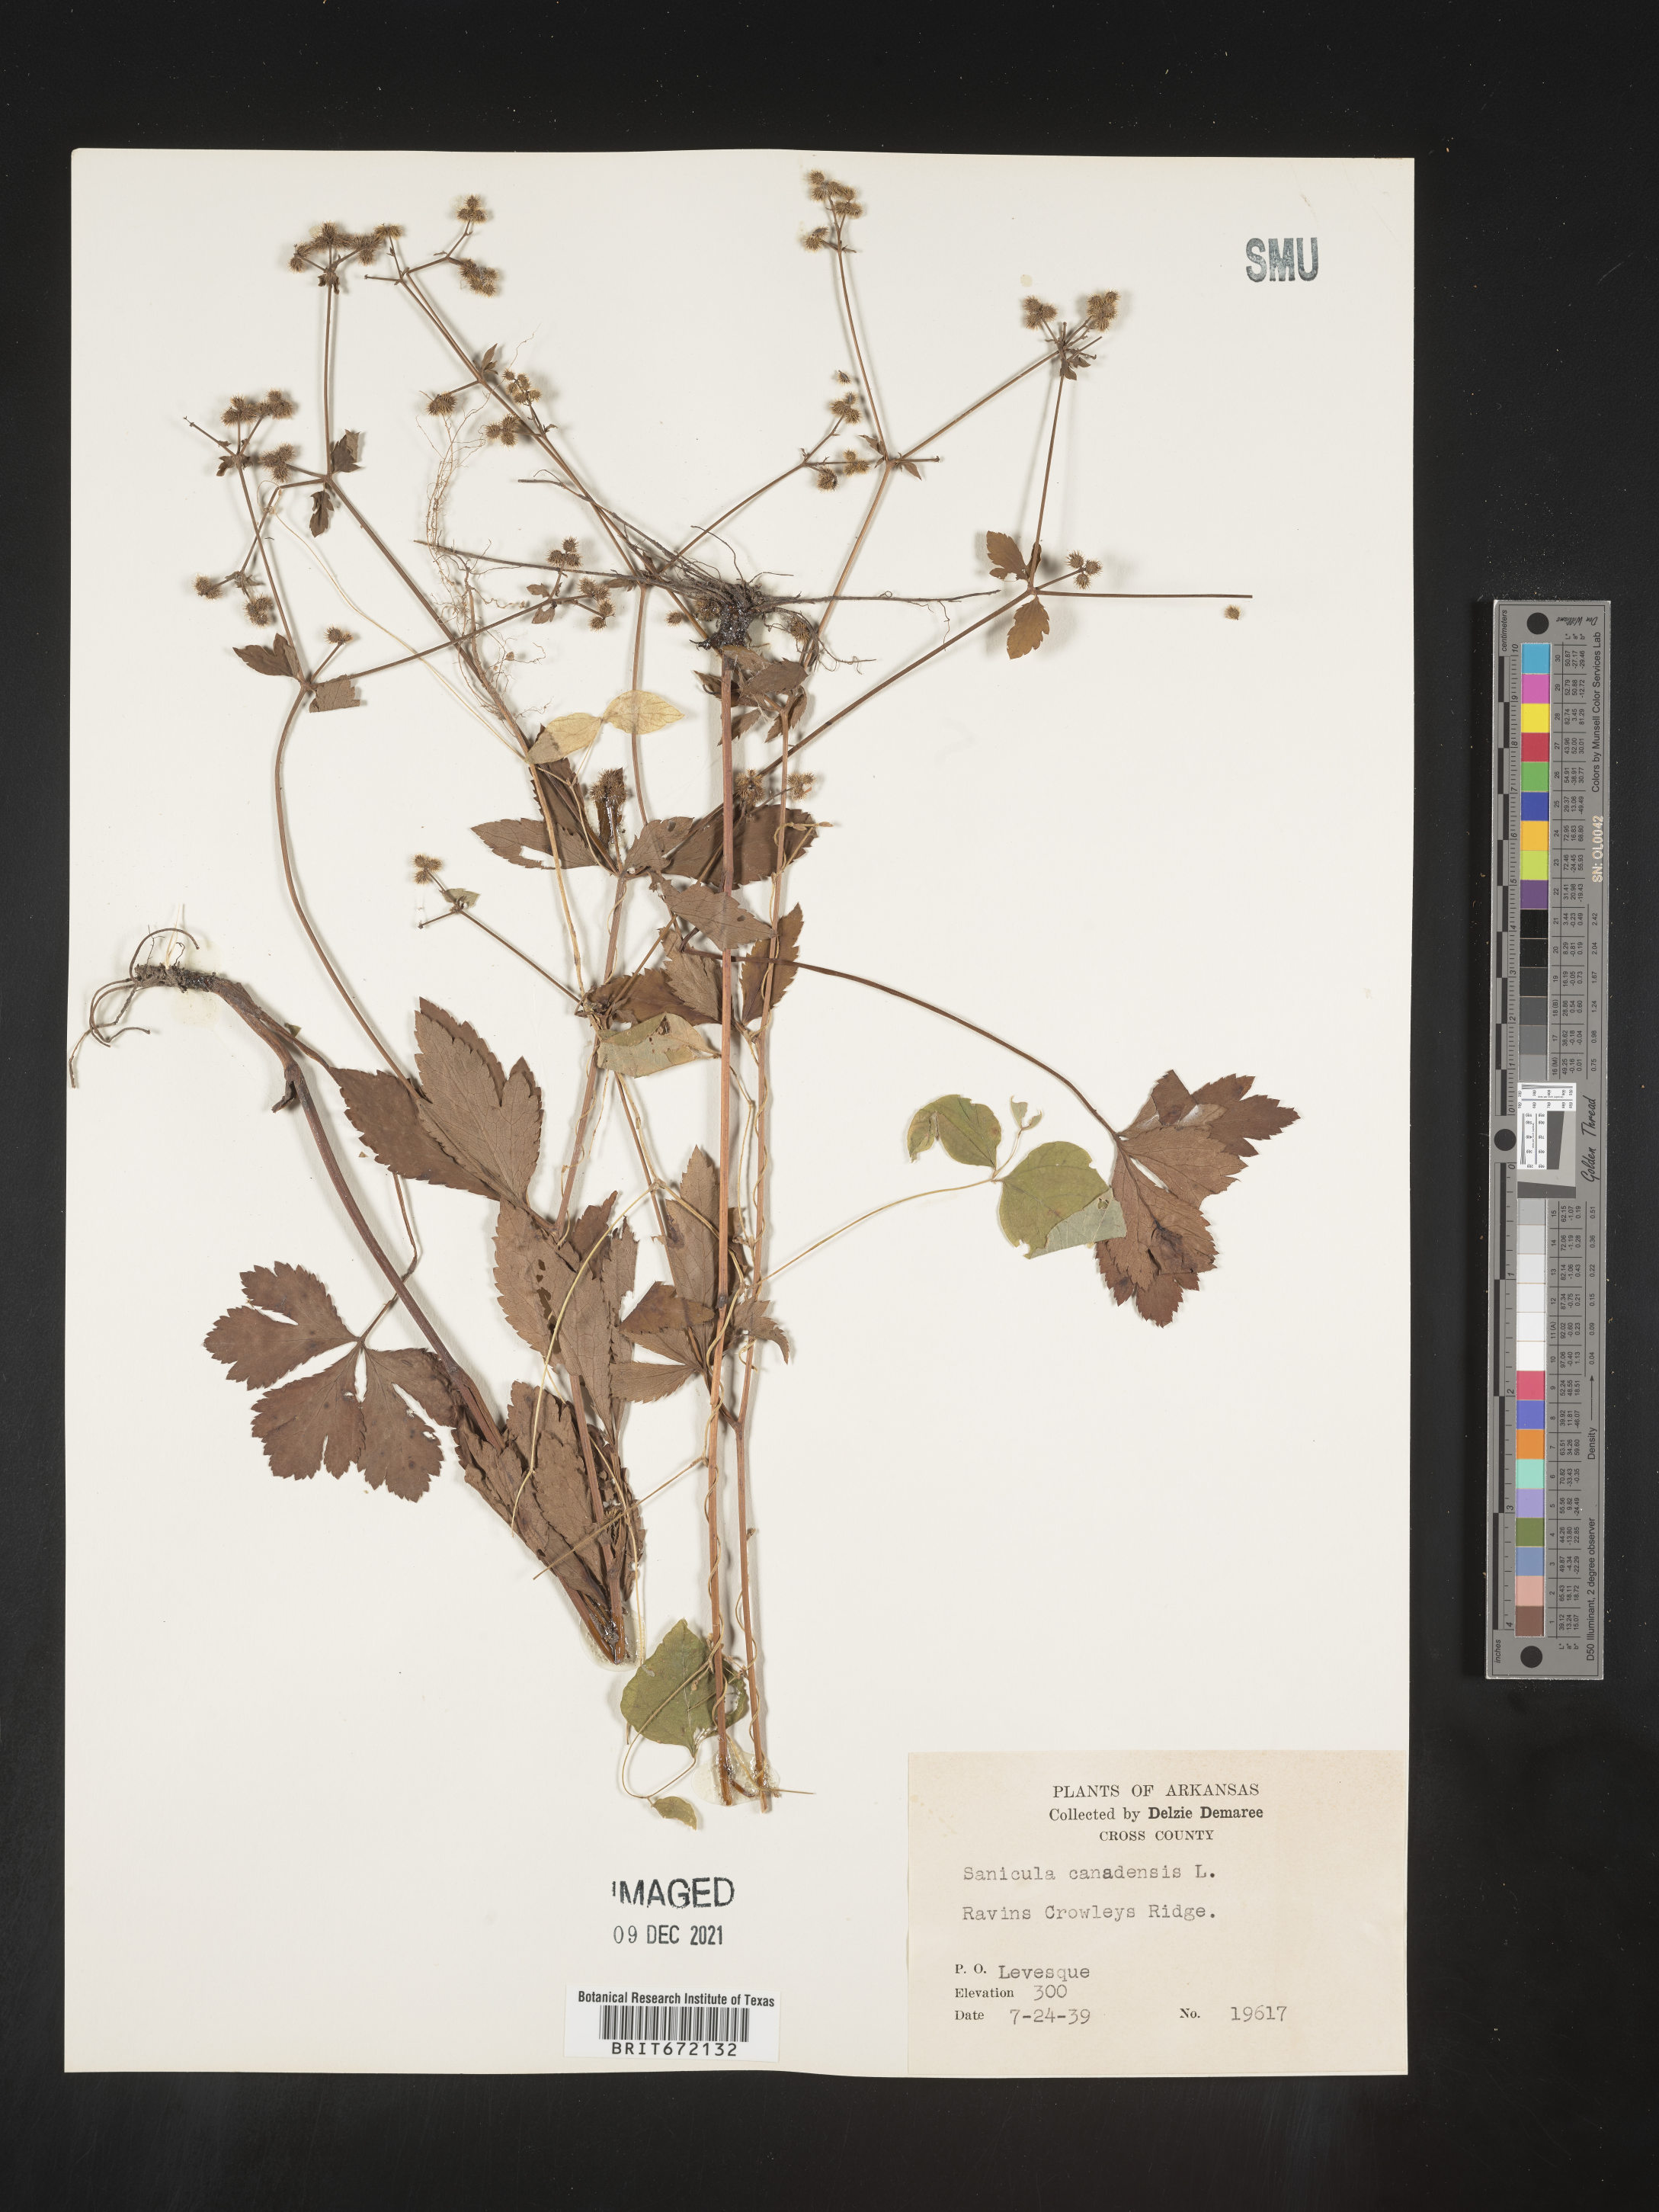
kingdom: Plantae
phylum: Tracheophyta
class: Magnoliopsida
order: Apiales
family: Apiaceae
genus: Sanicula
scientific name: Sanicula canadensis
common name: Canada sanicle
